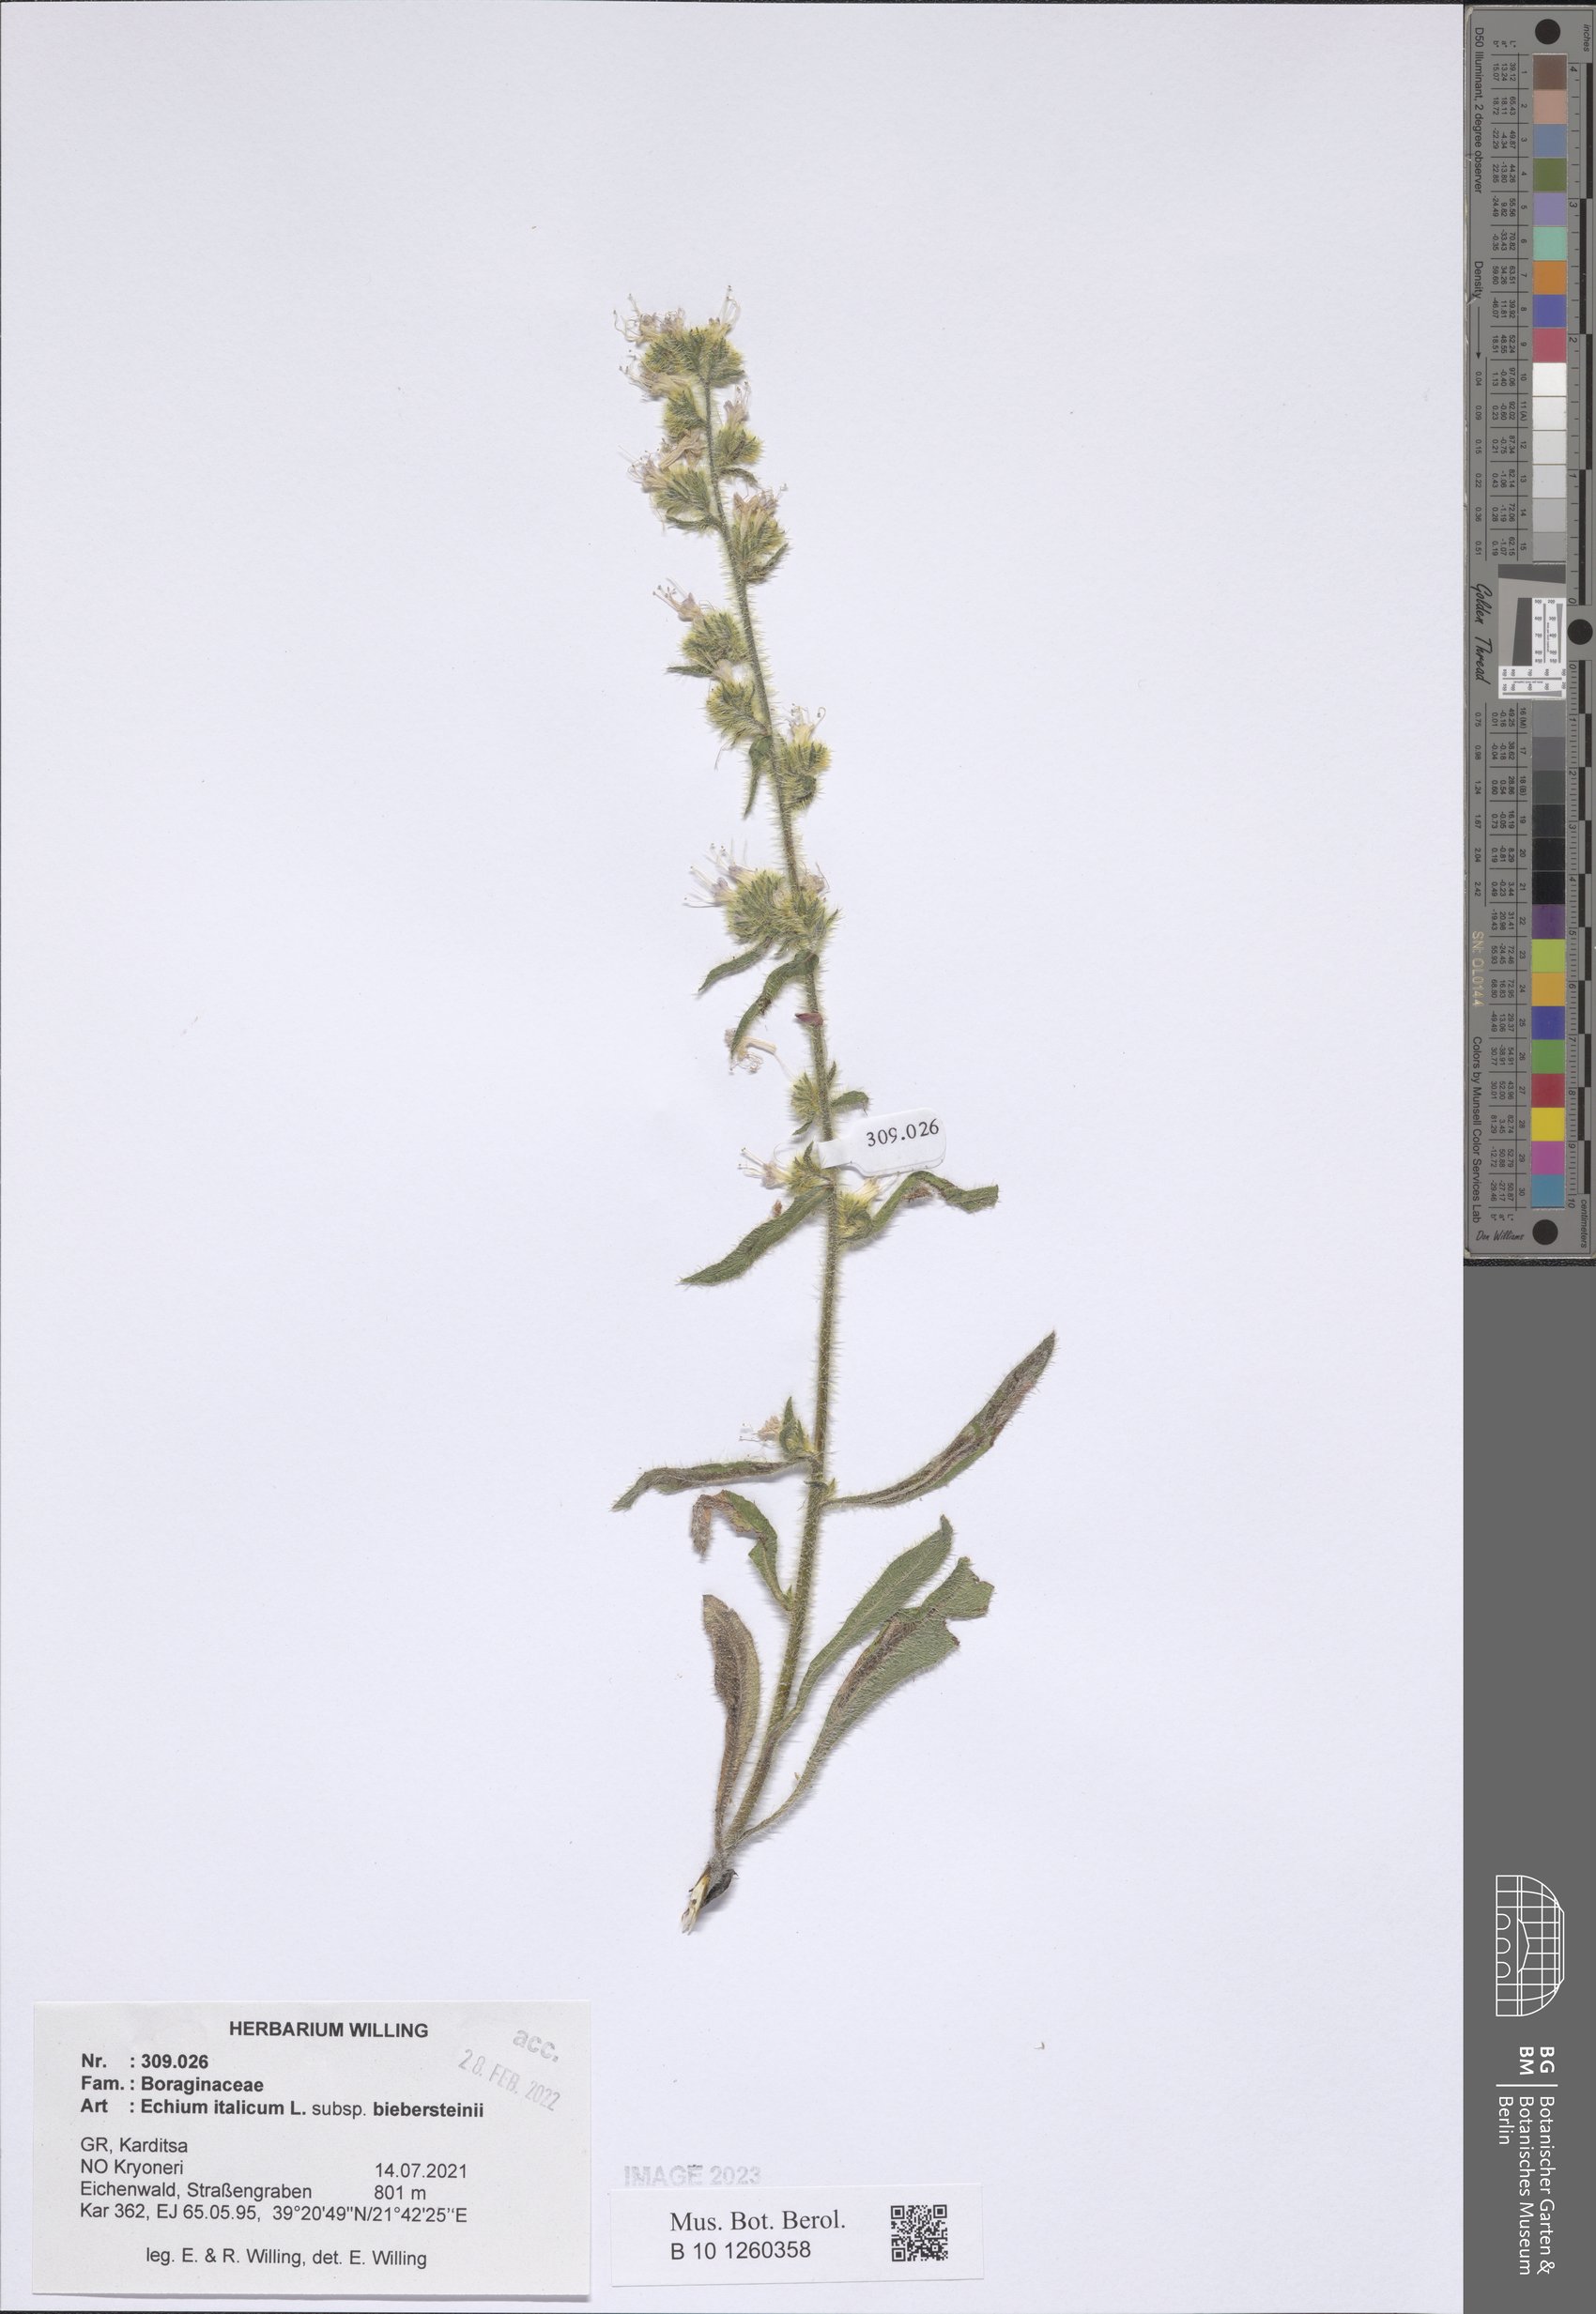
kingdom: Plantae
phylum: Tracheophyta
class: Magnoliopsida
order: Boraginales
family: Boraginaceae
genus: Echium
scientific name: Echium italicum
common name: Italian viper's bugloss
